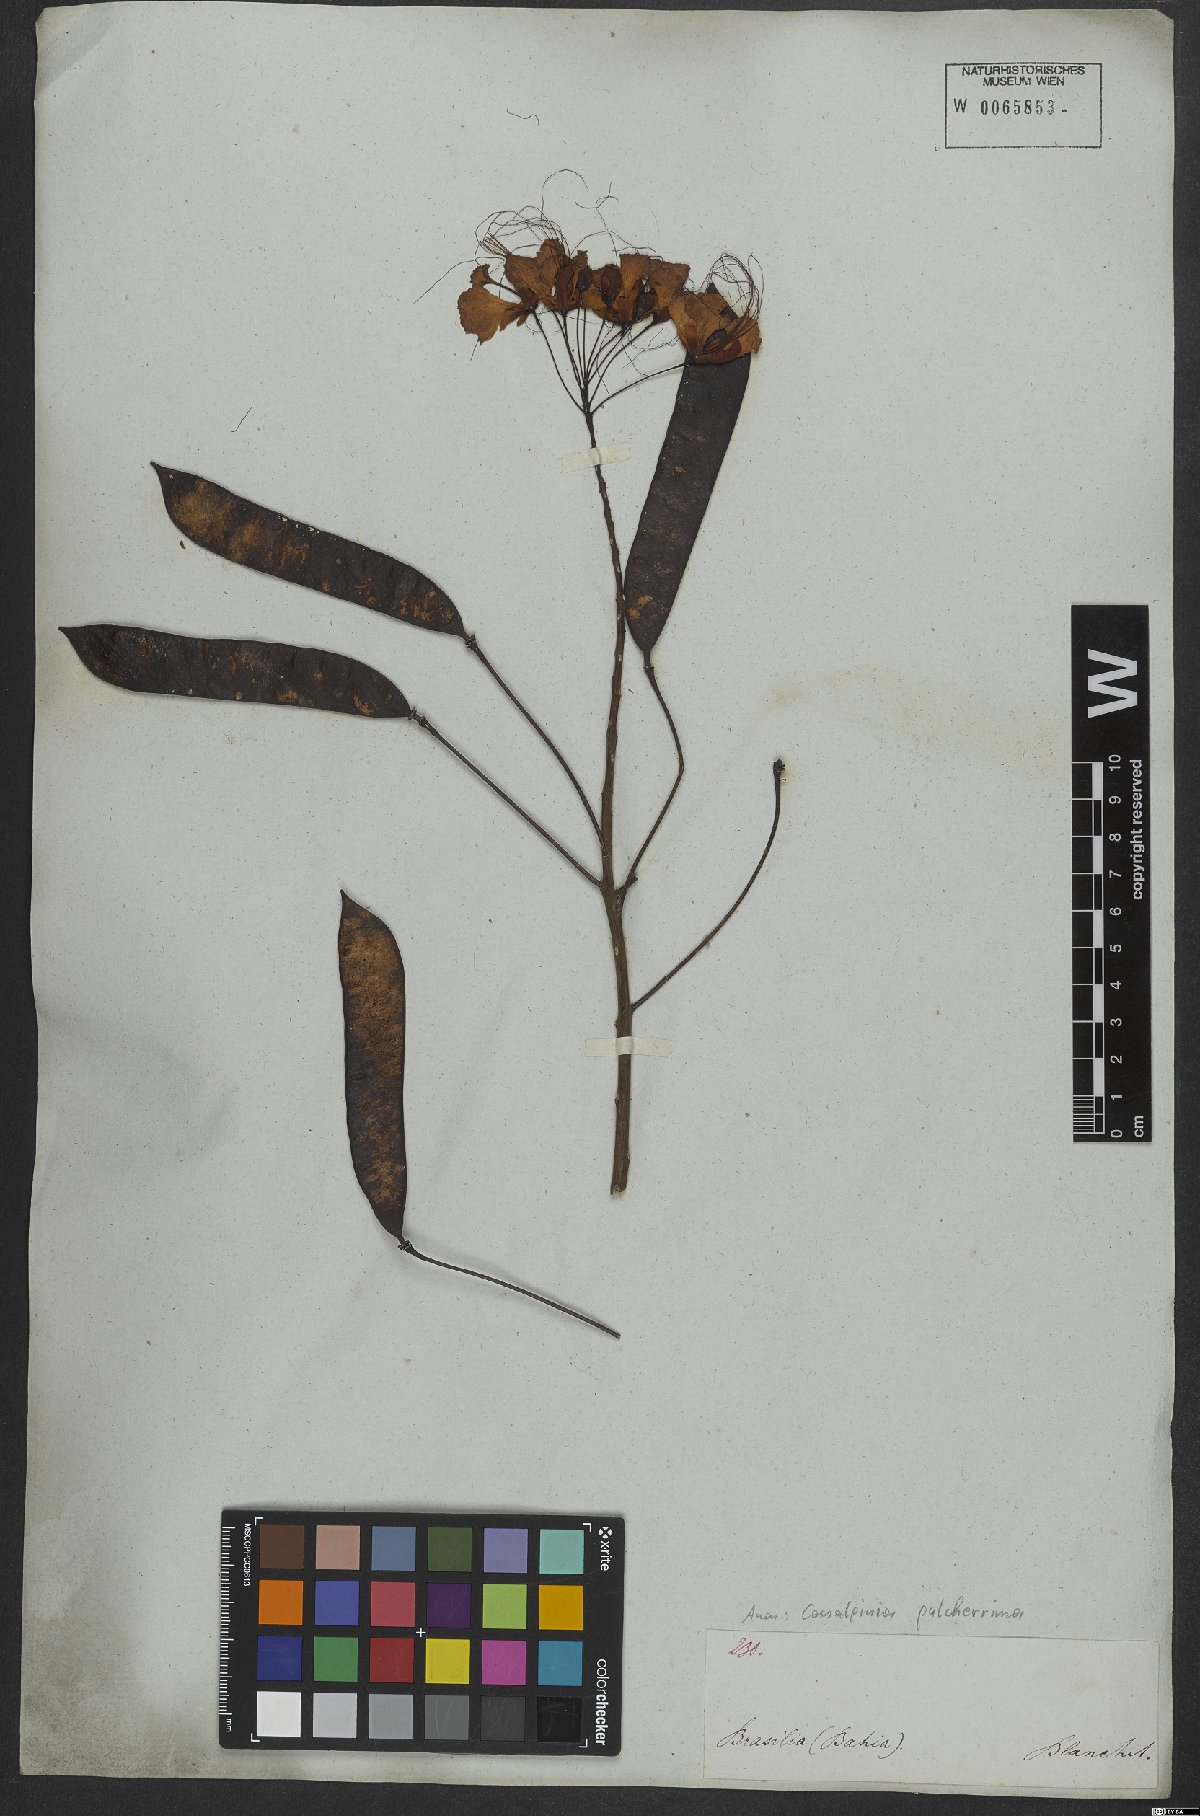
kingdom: Plantae
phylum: Tracheophyta
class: Magnoliopsida
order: Fabales
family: Fabaceae
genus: Caesalpinia
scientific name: Caesalpinia pulcherrima
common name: Pride-of-barbados
